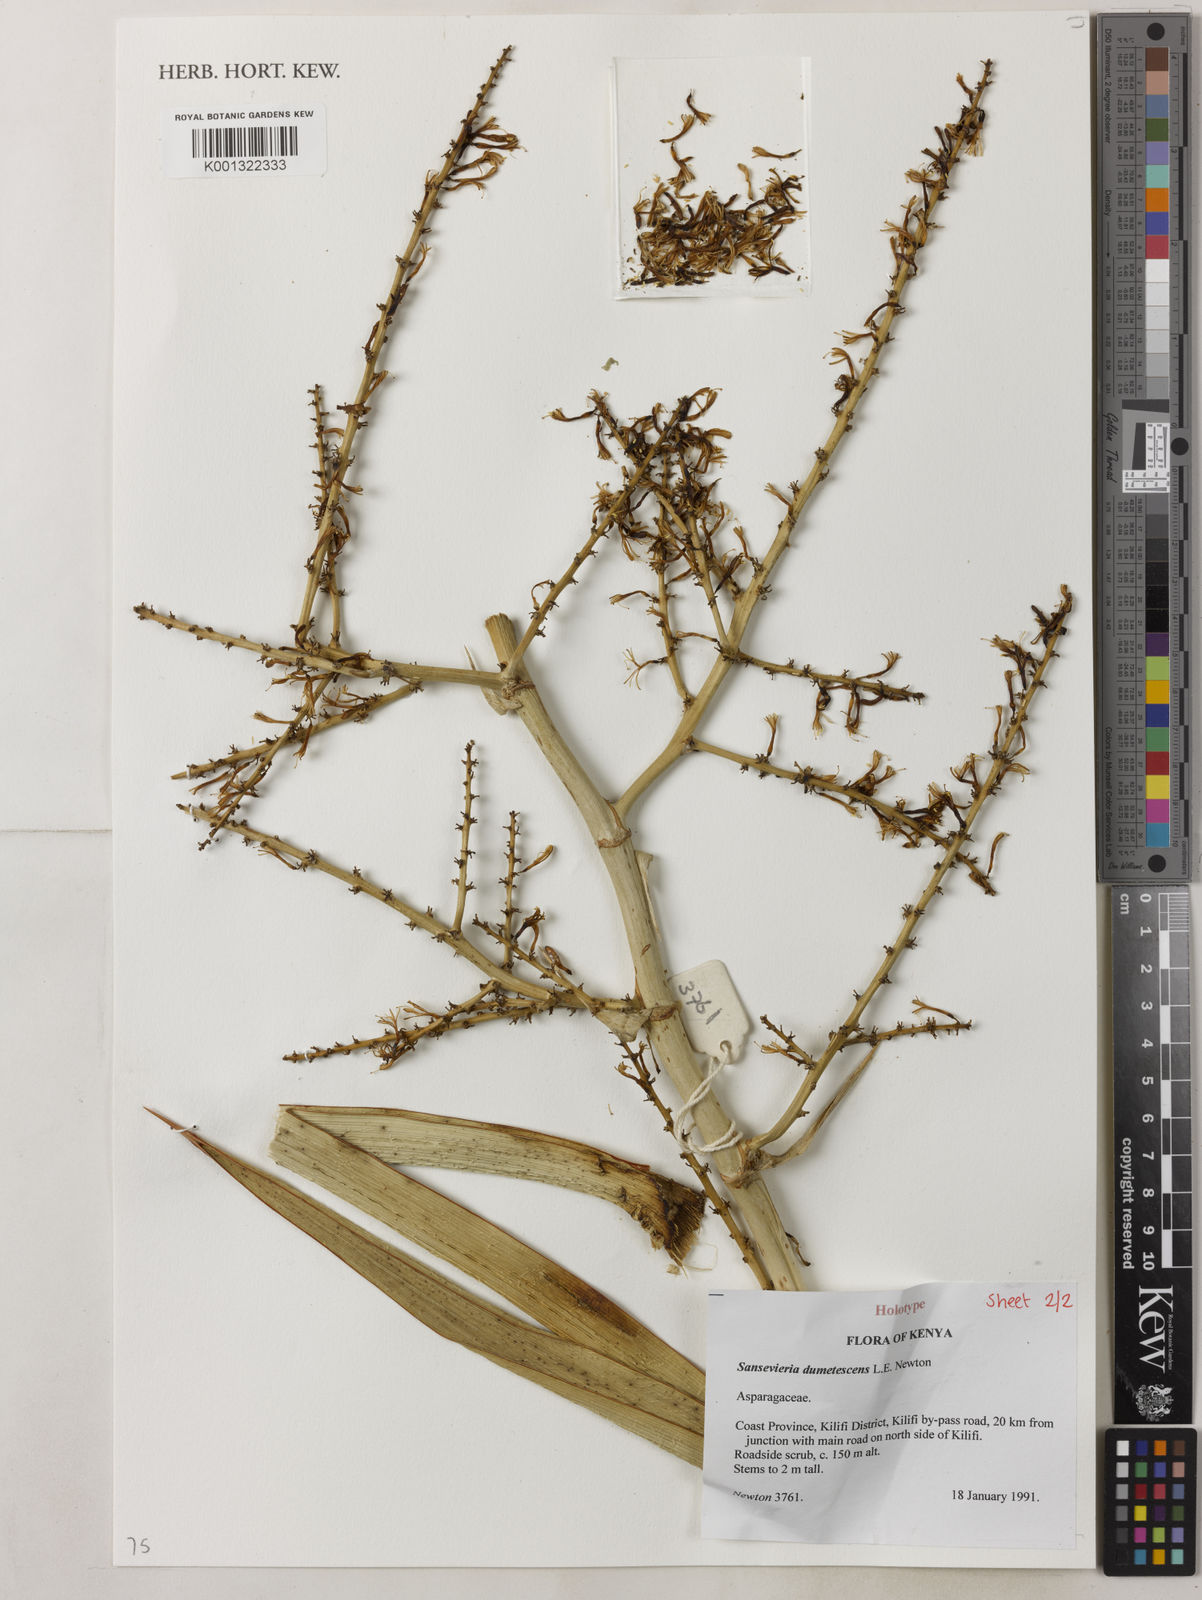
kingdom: Plantae
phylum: Tracheophyta
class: Liliopsida
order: Asparagales
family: Asparagaceae
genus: Dracaena
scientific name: Dracaena dumetescens
